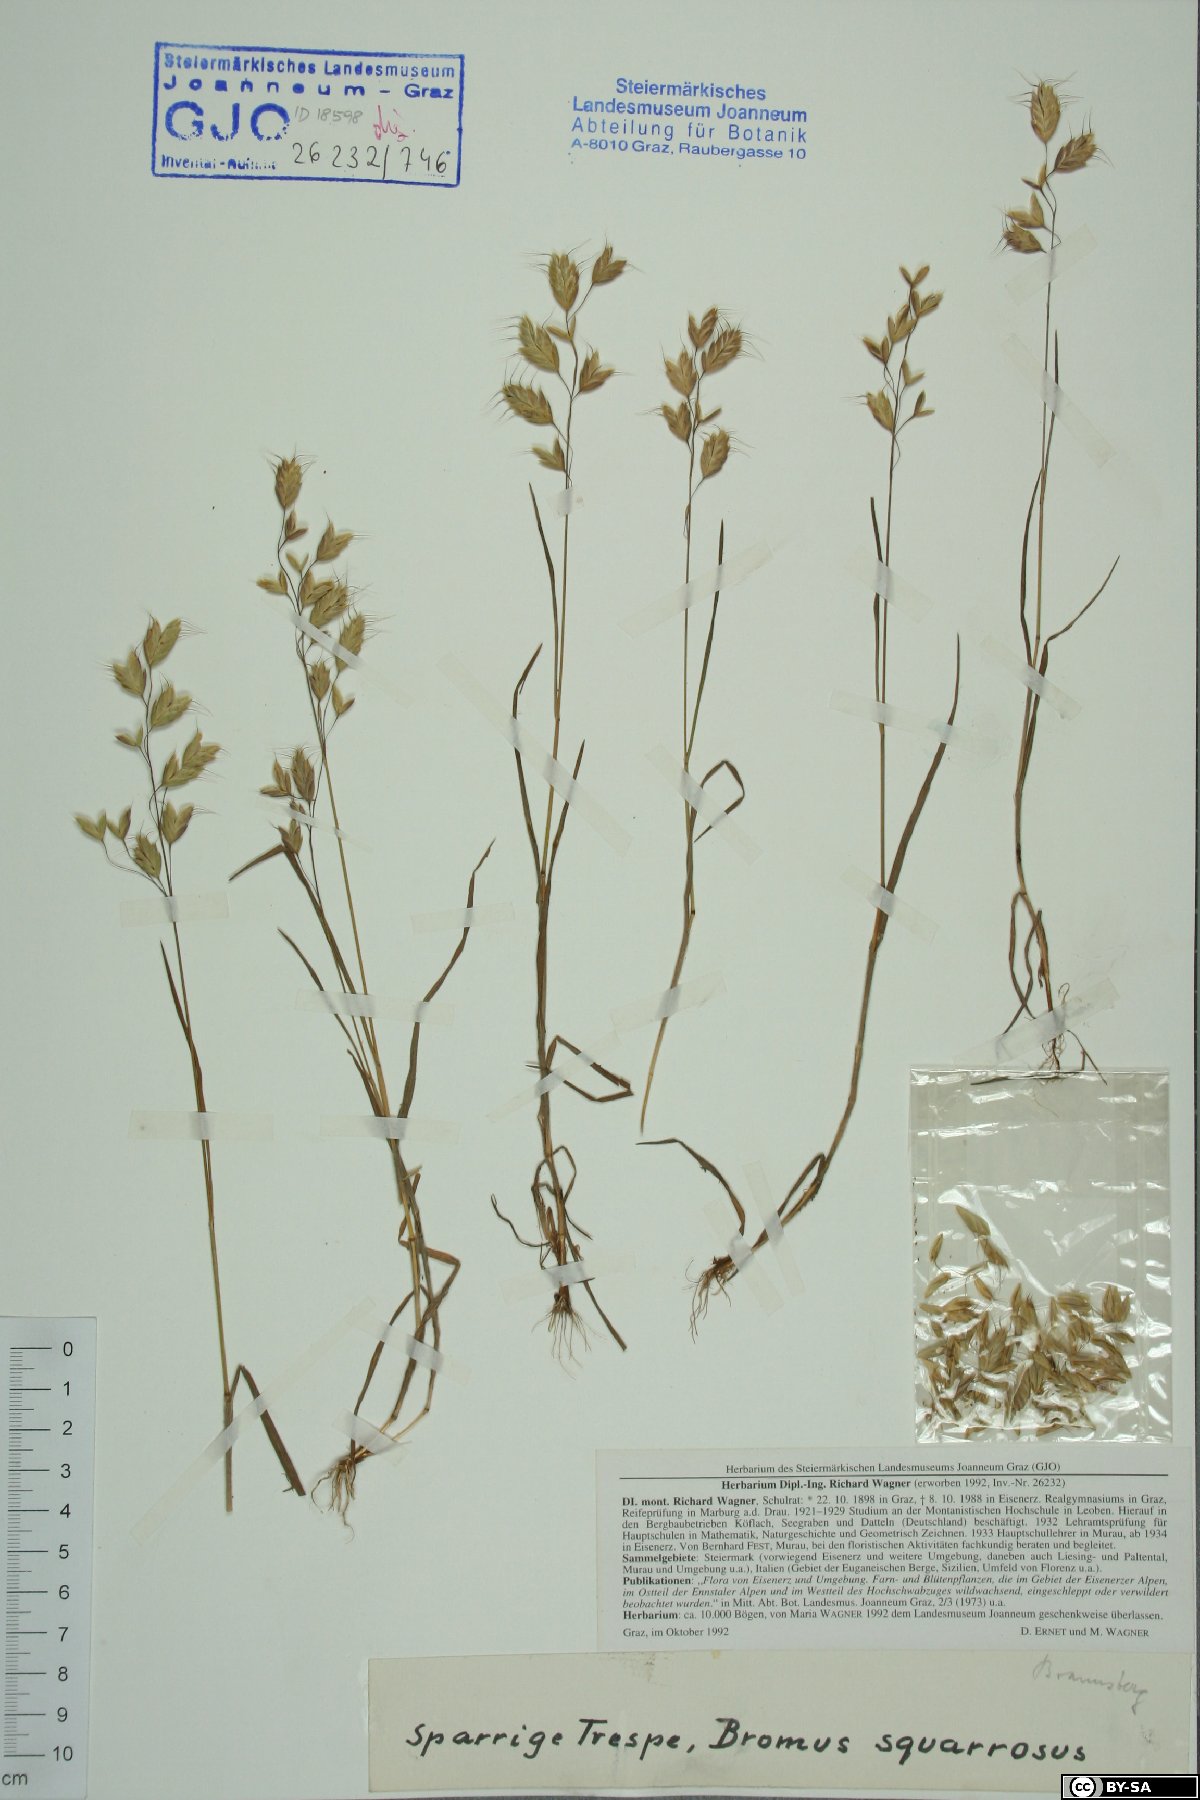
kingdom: Plantae
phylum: Tracheophyta
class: Liliopsida
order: Poales
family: Poaceae
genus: Bromus
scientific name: Bromus squarrosus
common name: Corn brome
